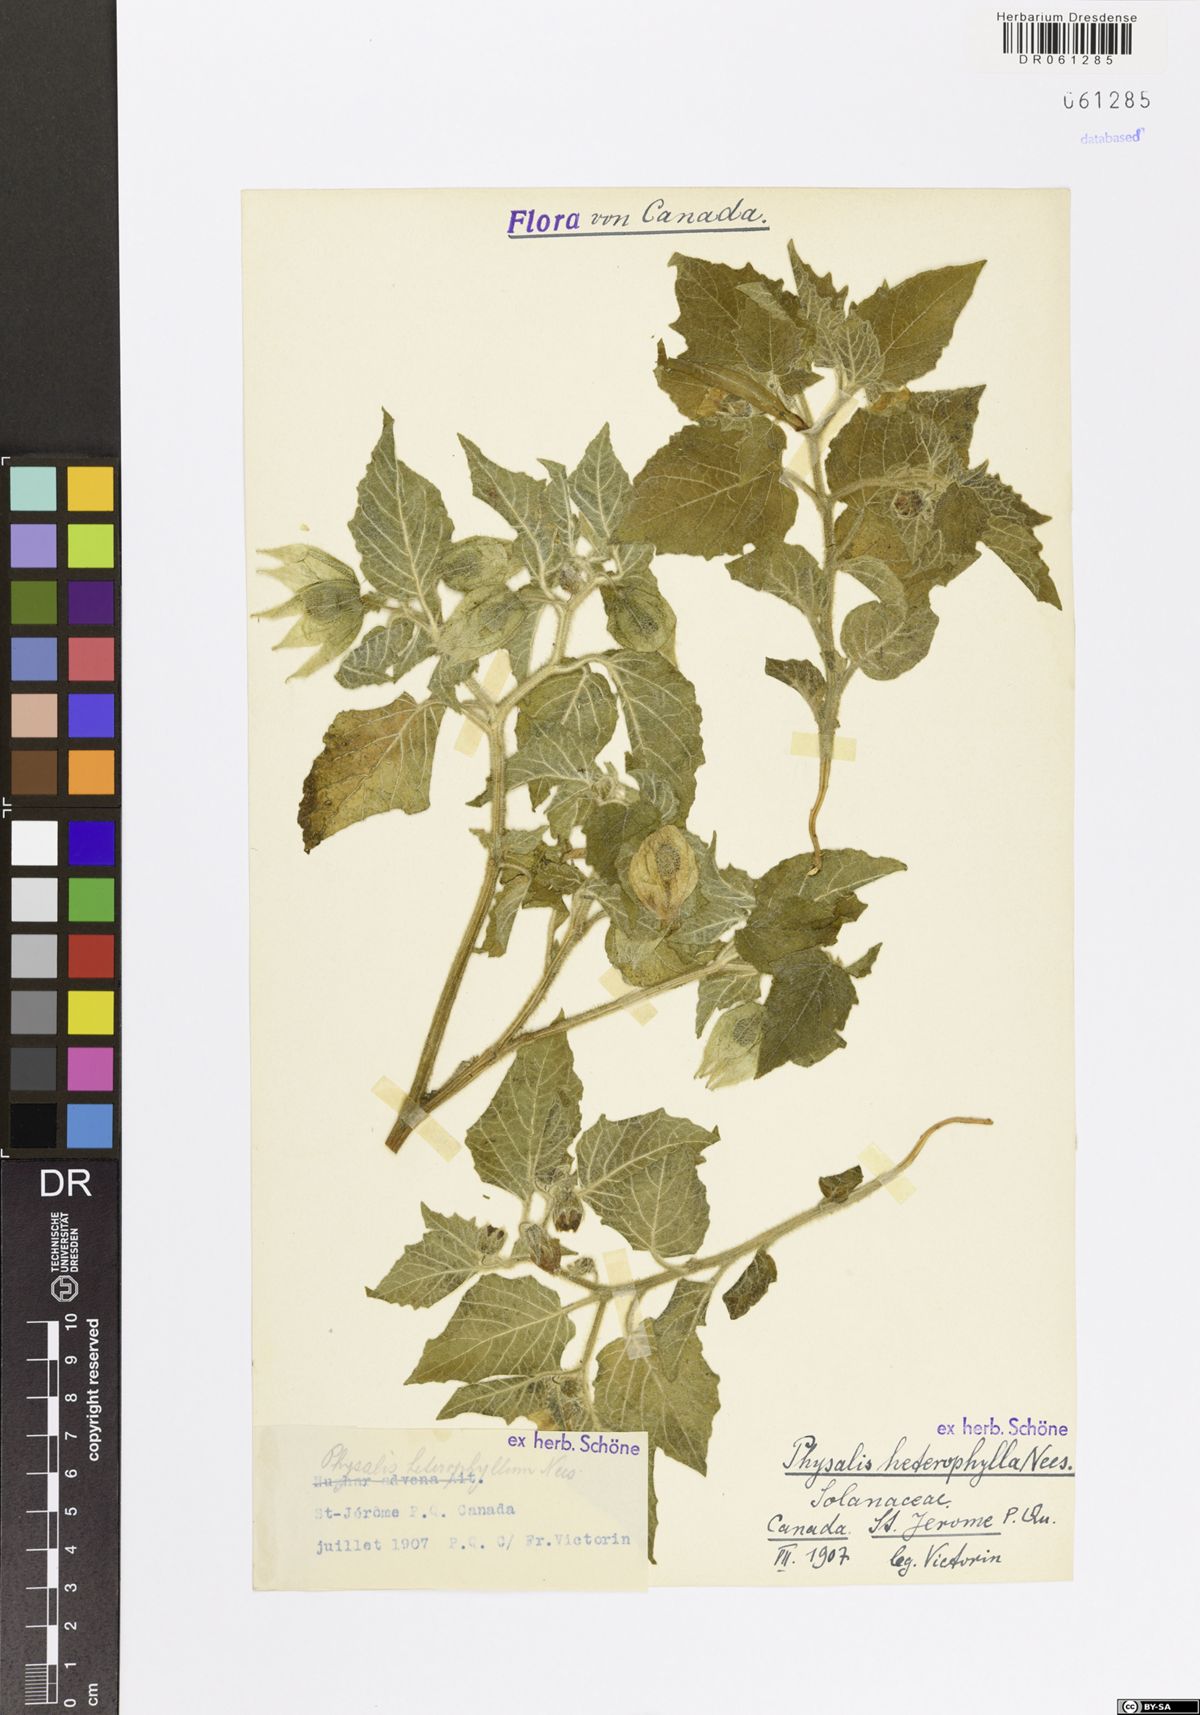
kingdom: Plantae
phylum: Tracheophyta
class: Magnoliopsida
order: Solanales
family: Solanaceae
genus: Physalis
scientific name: Physalis heterophylla
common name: Clammy ground-cherry
